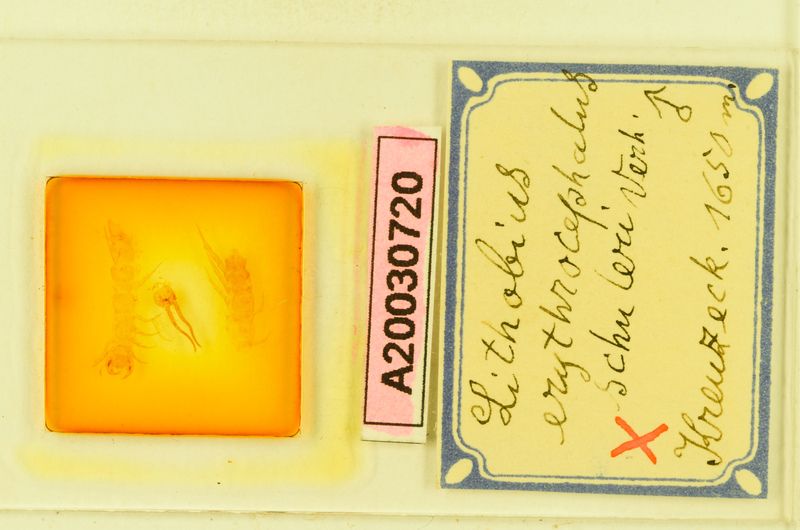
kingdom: Animalia
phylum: Arthropoda
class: Chilopoda
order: Lithobiomorpha
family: Lithobiidae
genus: Lithobius
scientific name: Lithobius erythrocephalus
